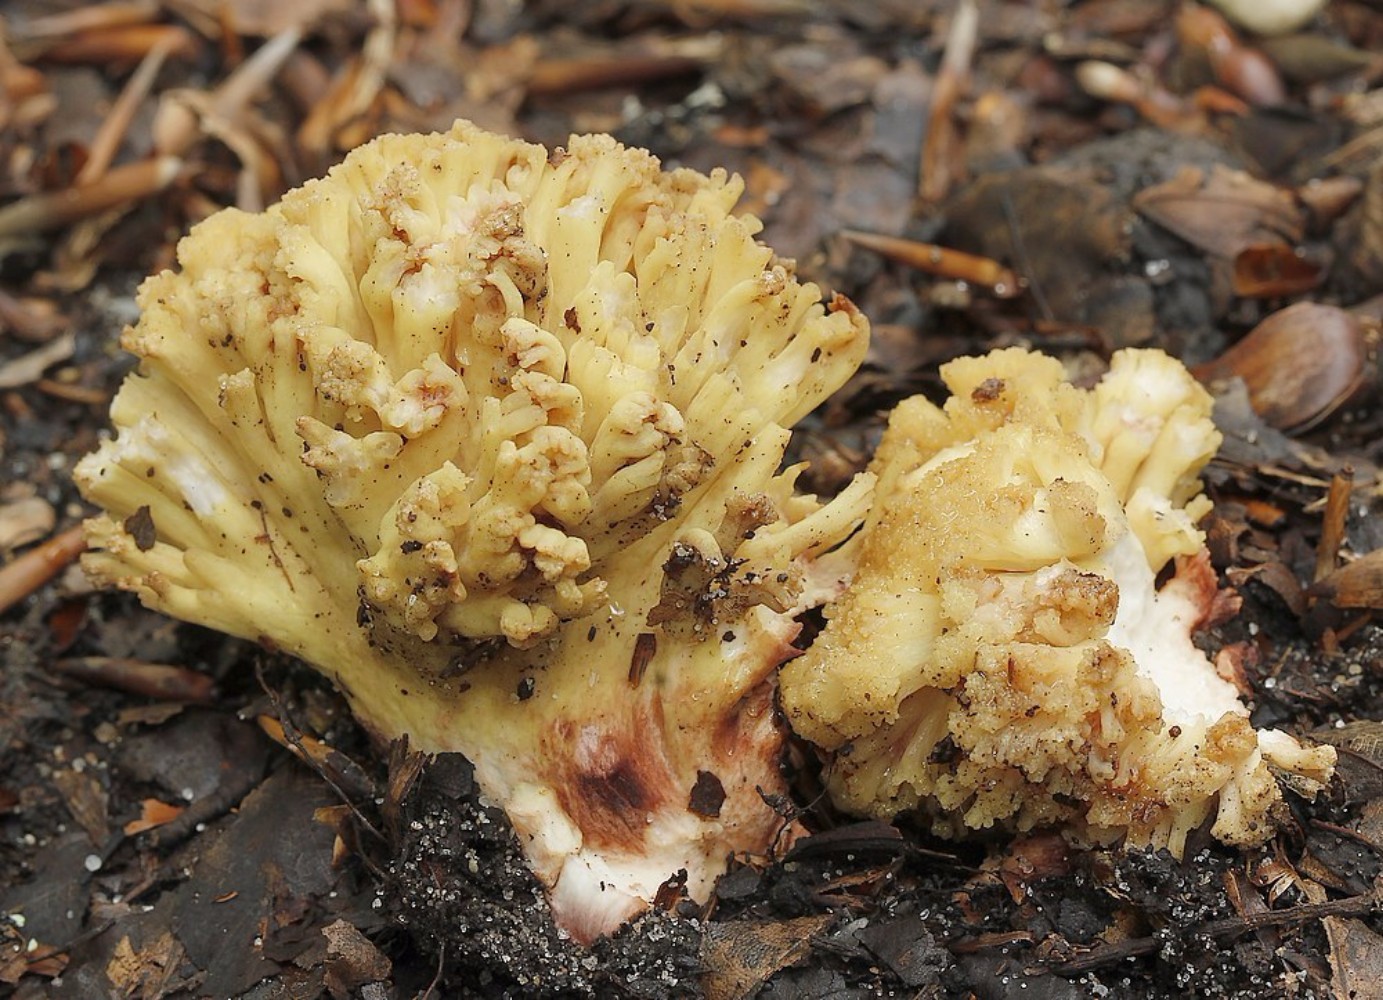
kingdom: Fungi
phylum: Basidiomycota
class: Agaricomycetes
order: Gomphales
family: Gomphaceae
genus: Ramaria
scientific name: Ramaria sanguinea
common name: blodplettet koralsvamp
